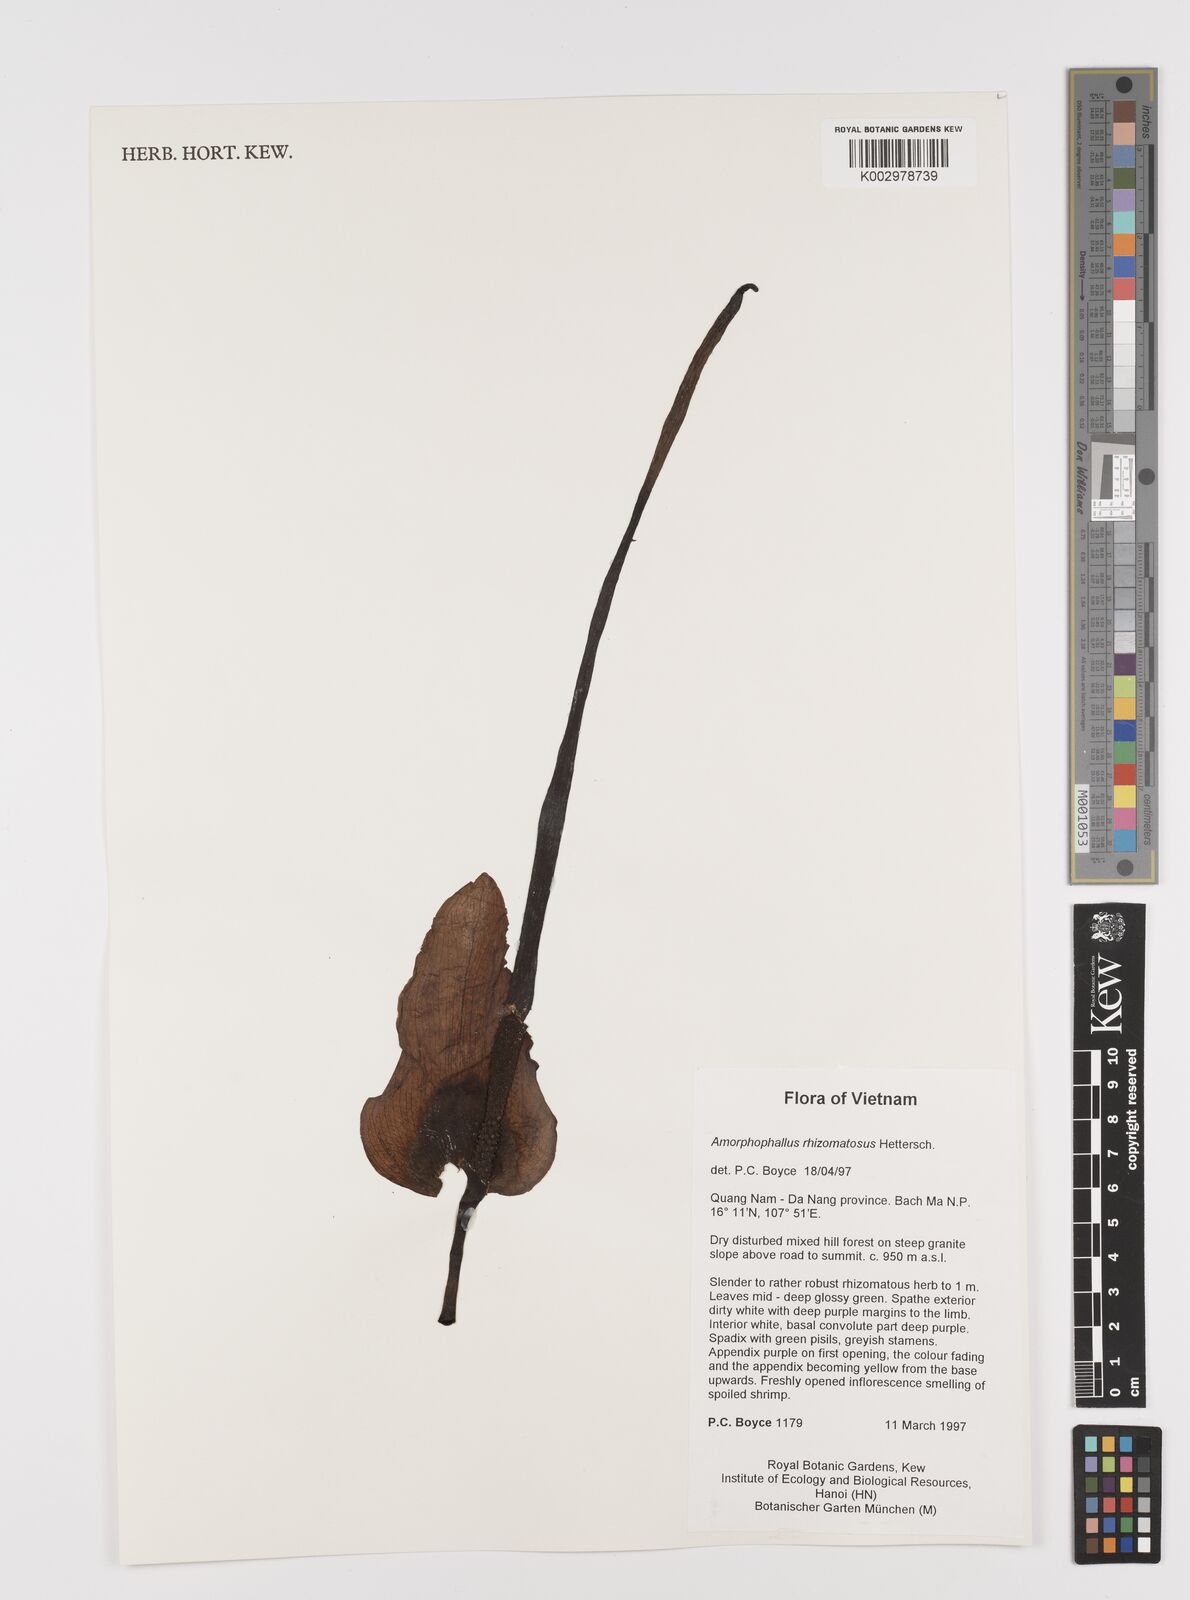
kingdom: Plantae
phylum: Tracheophyta
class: Liliopsida
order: Alismatales
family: Araceae
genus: Amorphophallus
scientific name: Amorphophallus rhizomatosus
